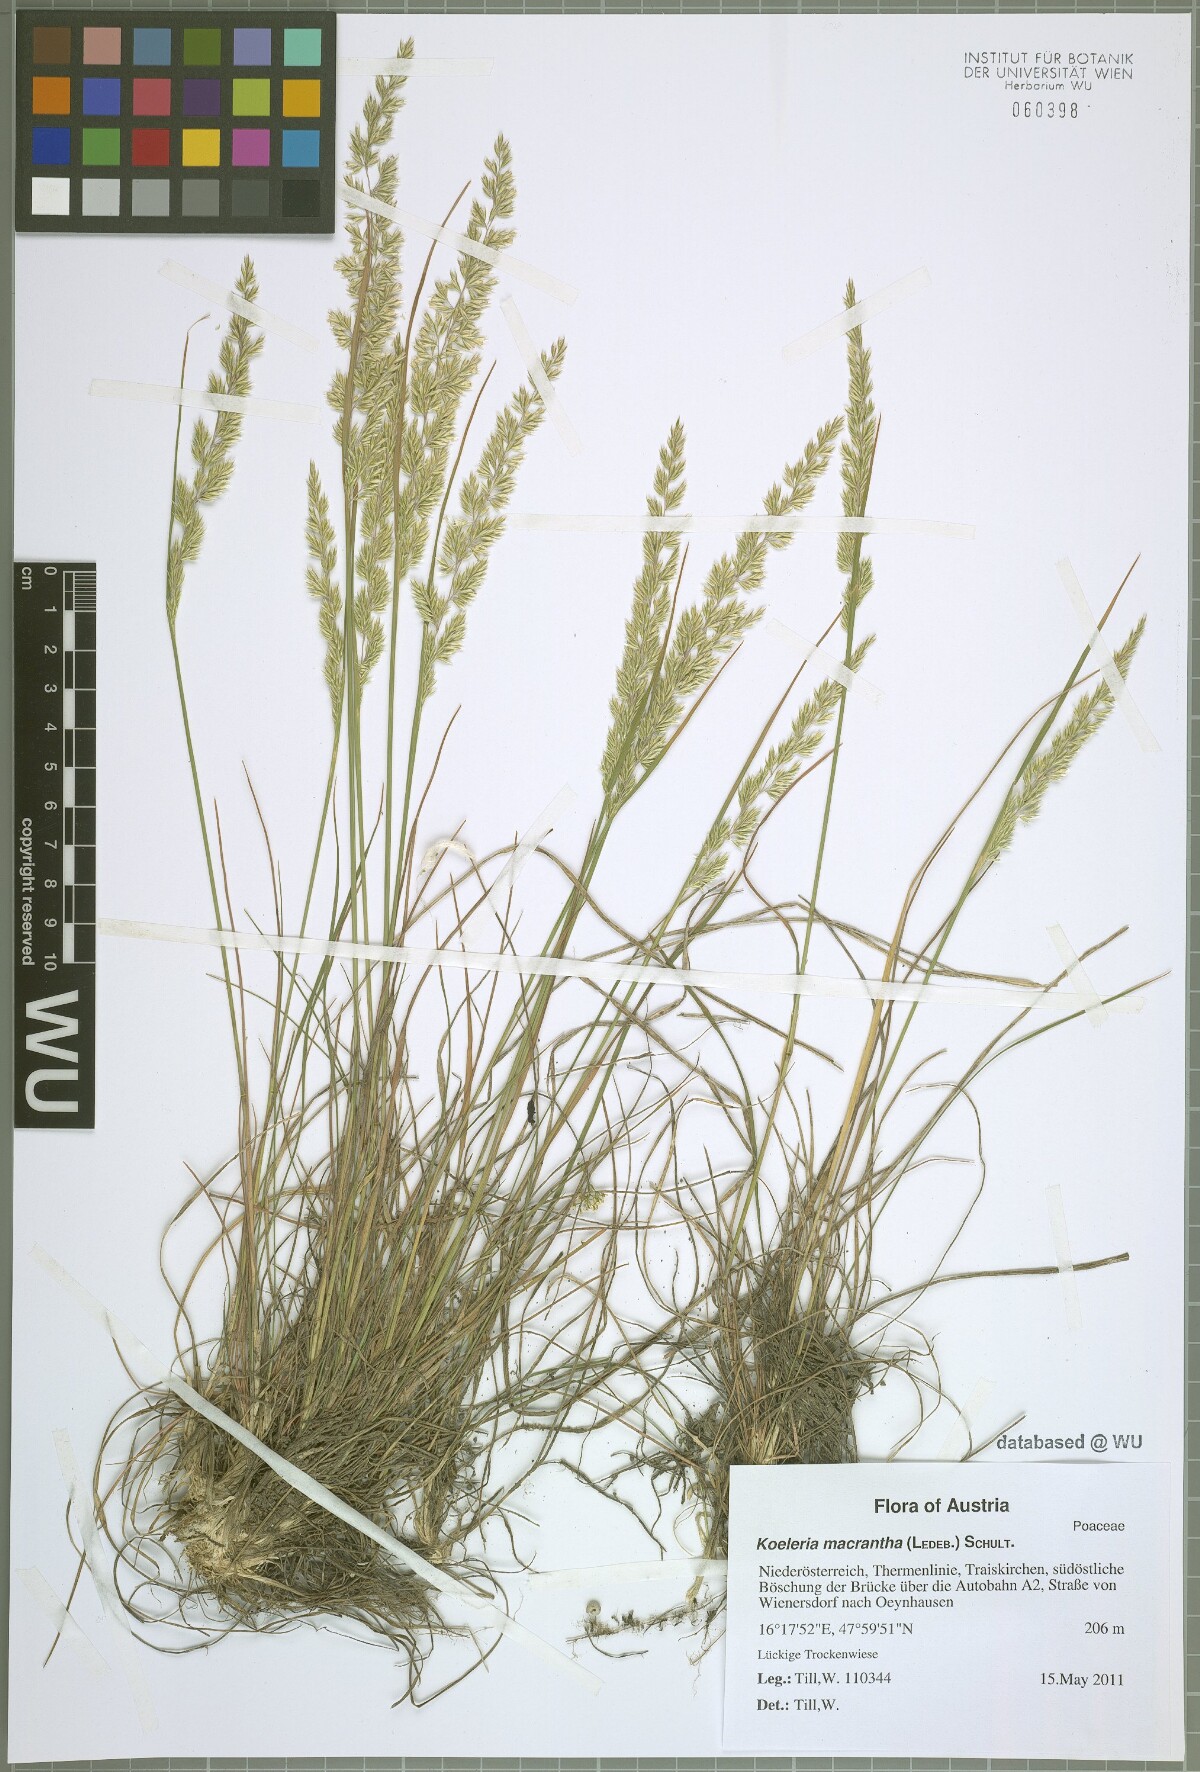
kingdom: Plantae
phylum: Tracheophyta
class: Liliopsida
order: Poales
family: Poaceae
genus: Koeleria
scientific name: Koeleria macrantha
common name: Crested hair-grass
